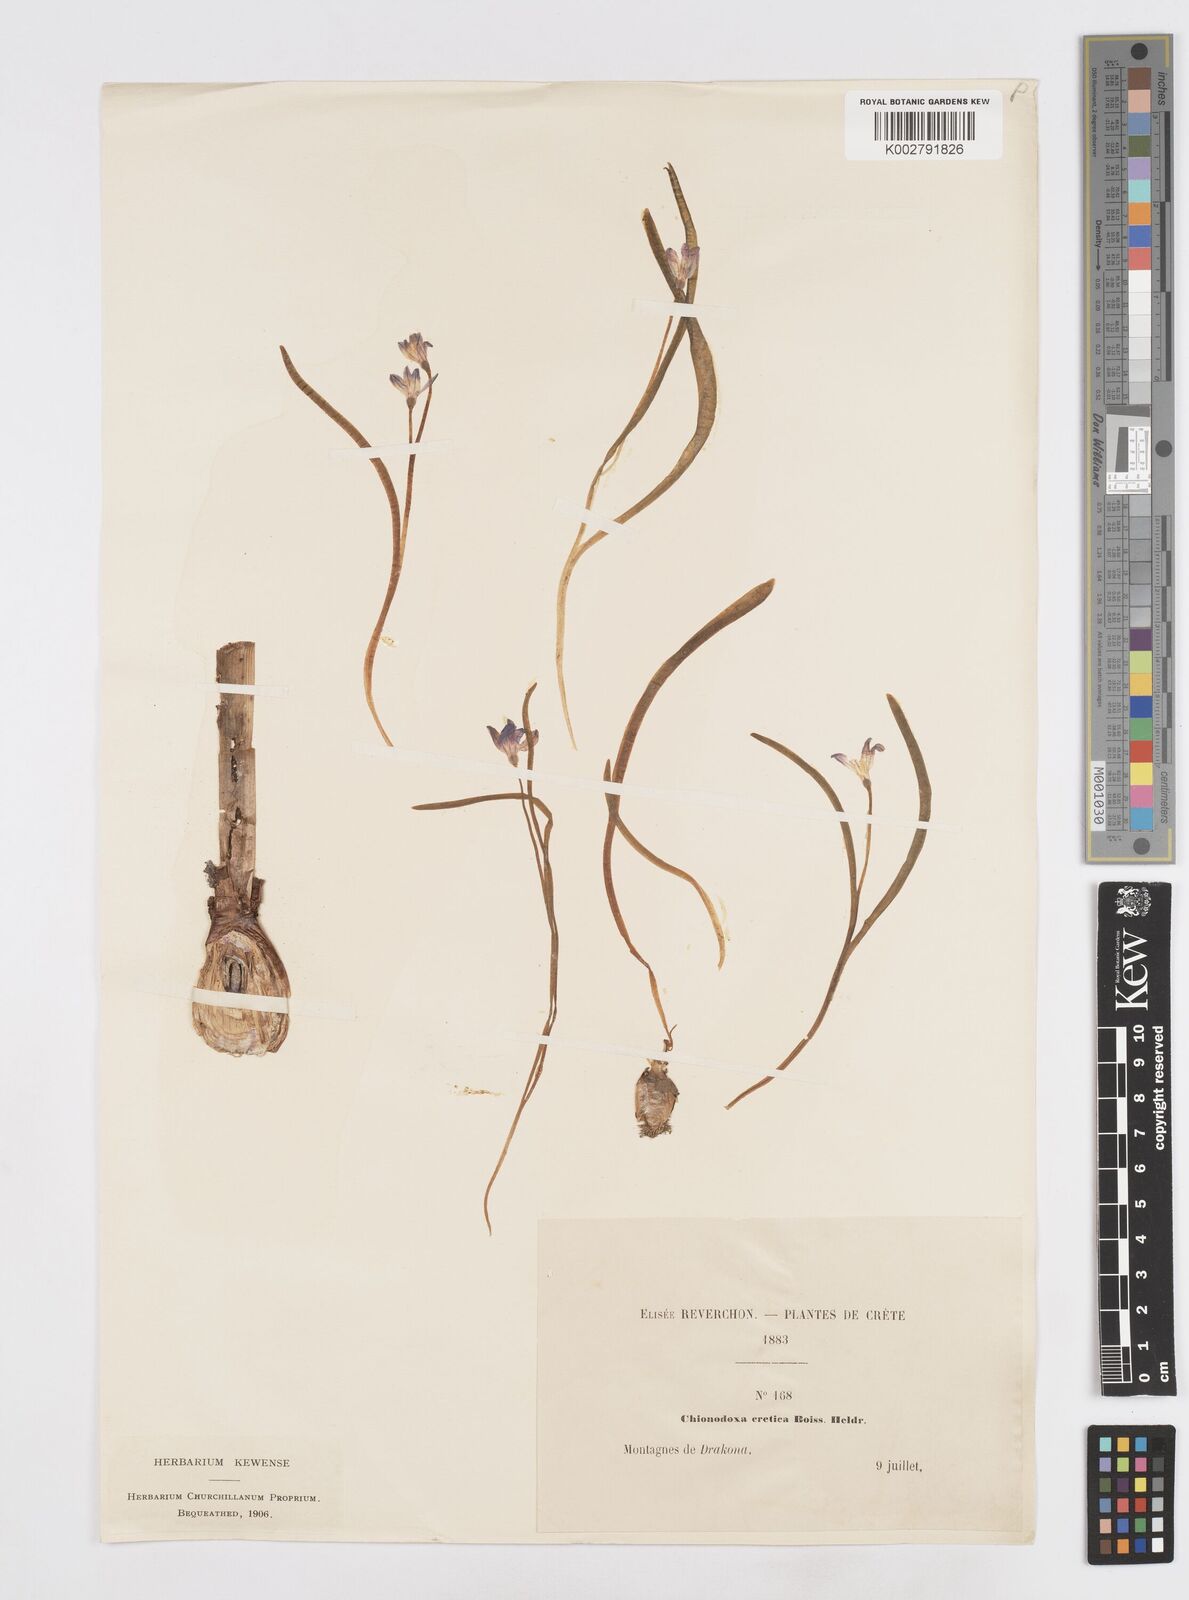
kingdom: Plantae
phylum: Tracheophyta
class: Liliopsida
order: Asparagales
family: Asparagaceae
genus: Scilla
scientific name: Scilla cretica
